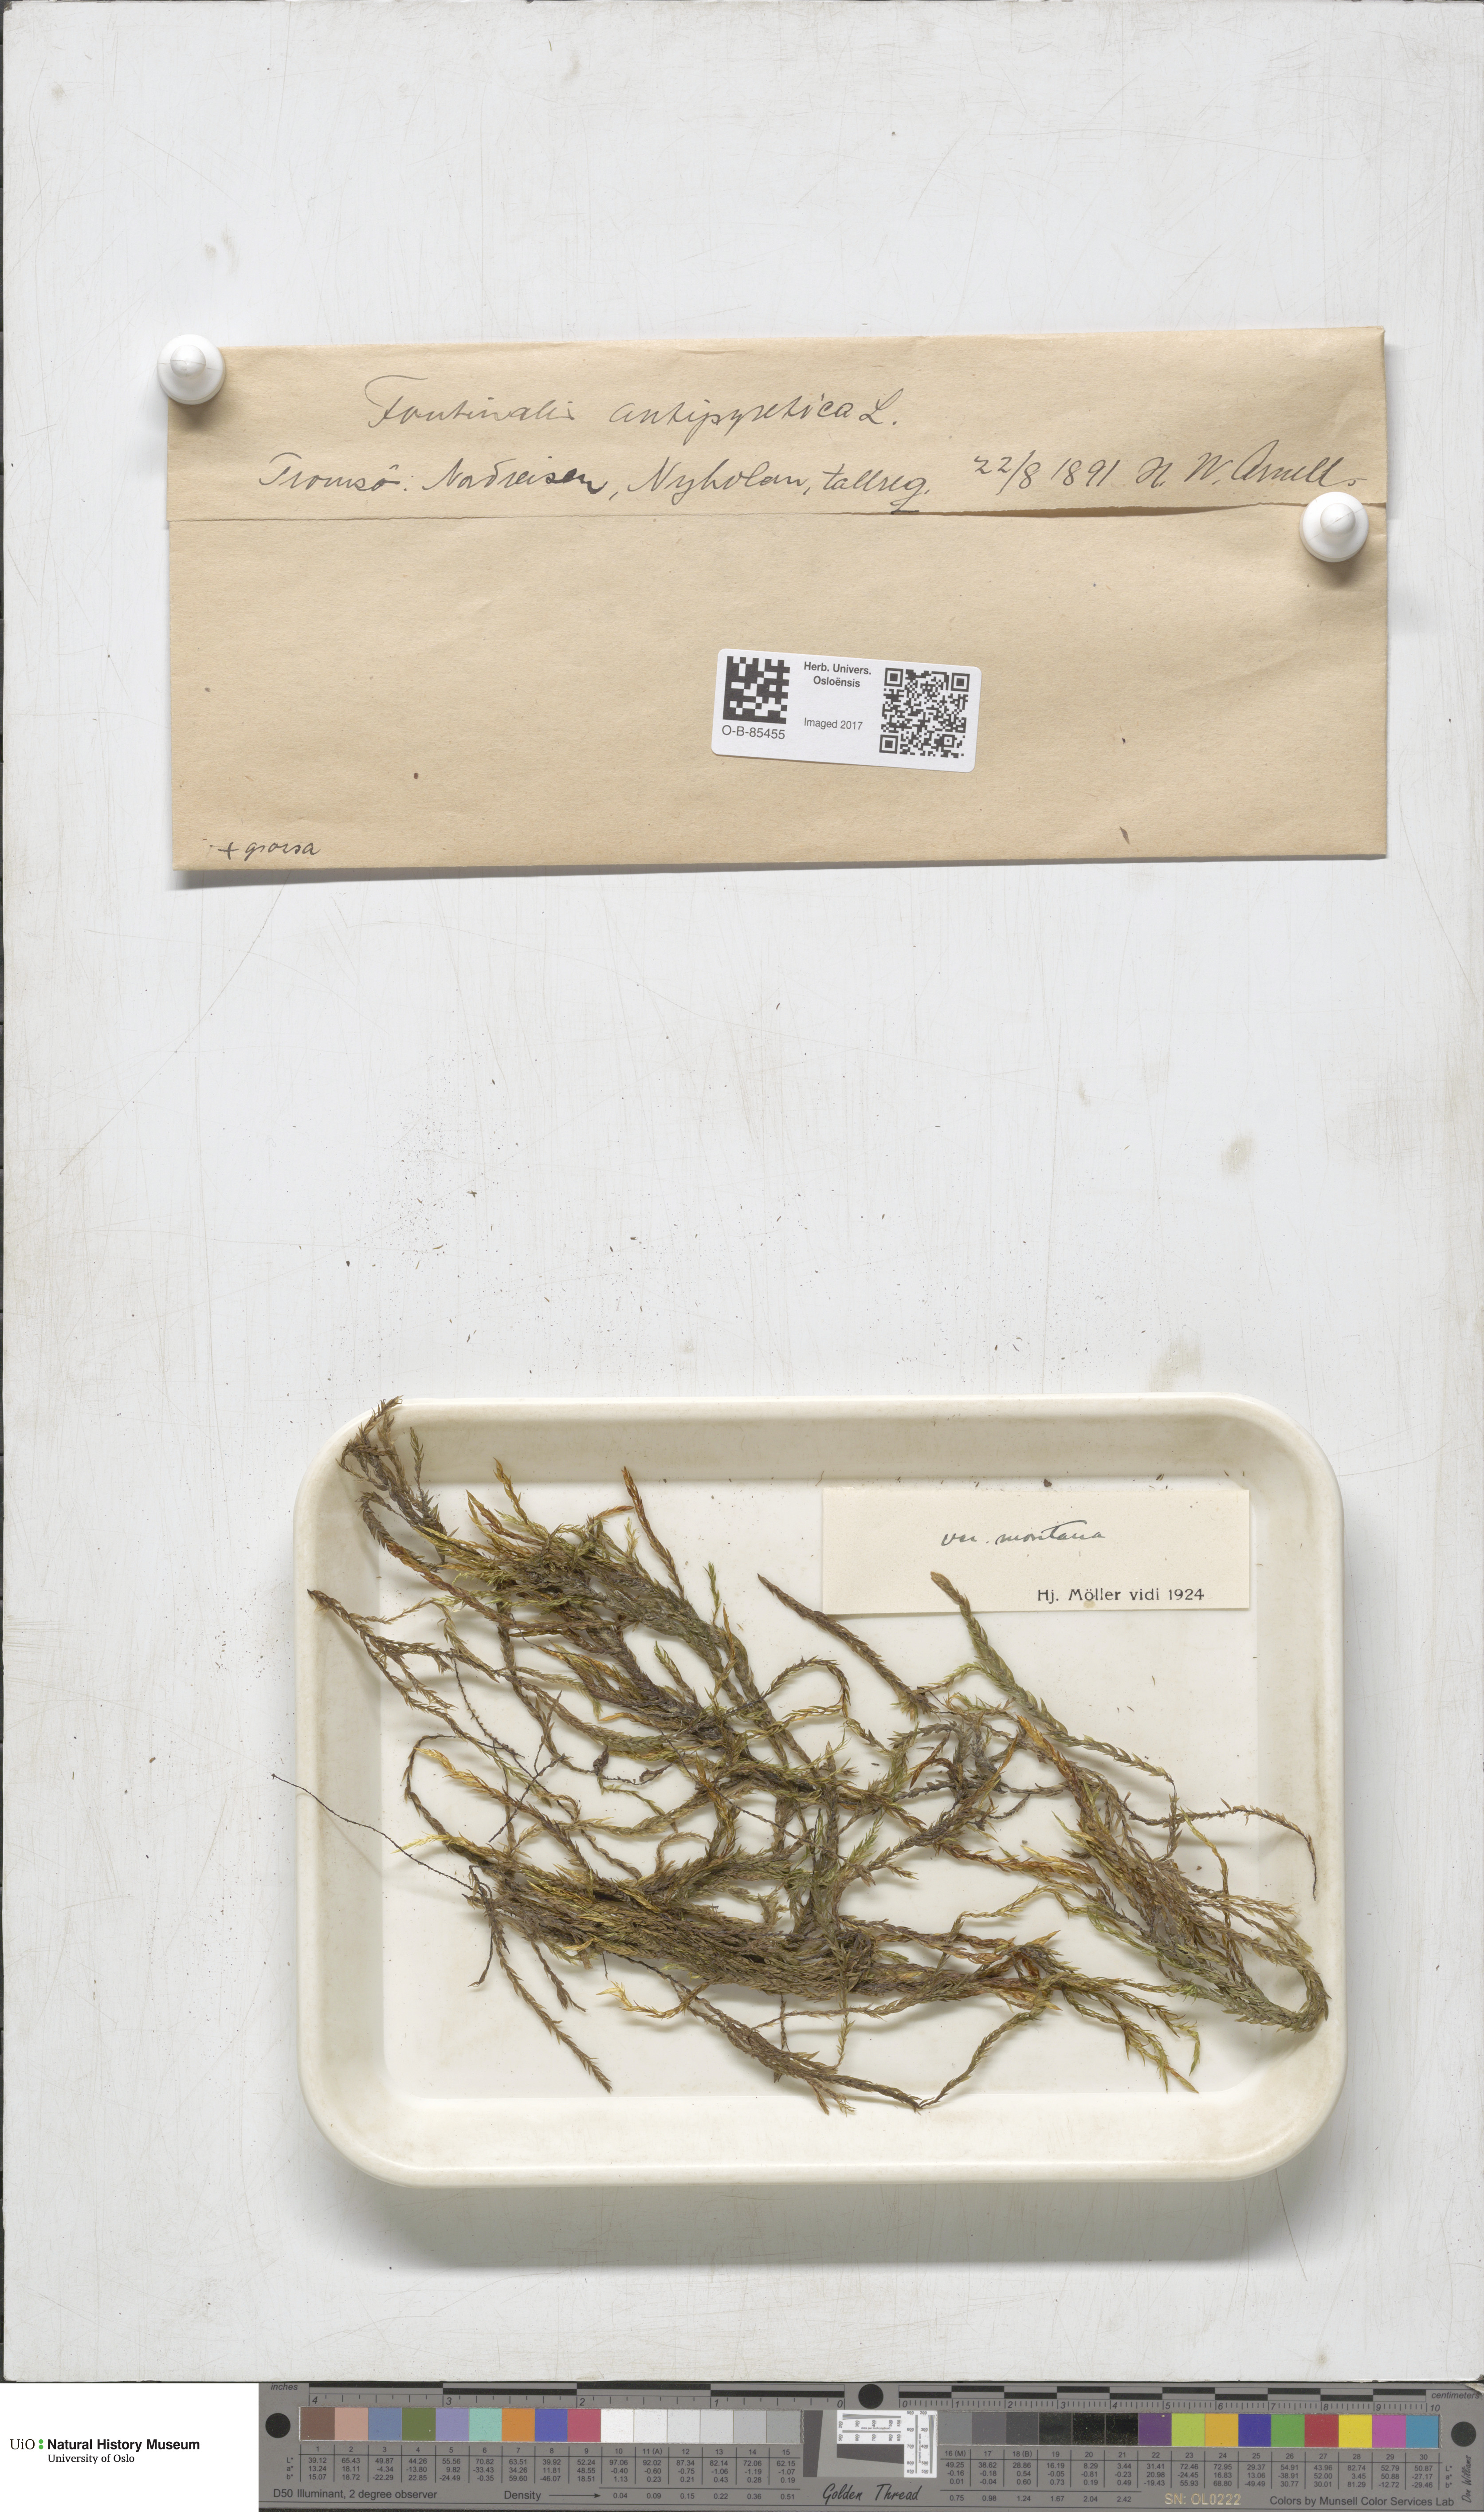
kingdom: Plantae
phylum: Bryophyta
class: Bryopsida
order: Hypnales
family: Fontinalaceae
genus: Fontinalis
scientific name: Fontinalis antipyretica
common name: Greater water-moss
